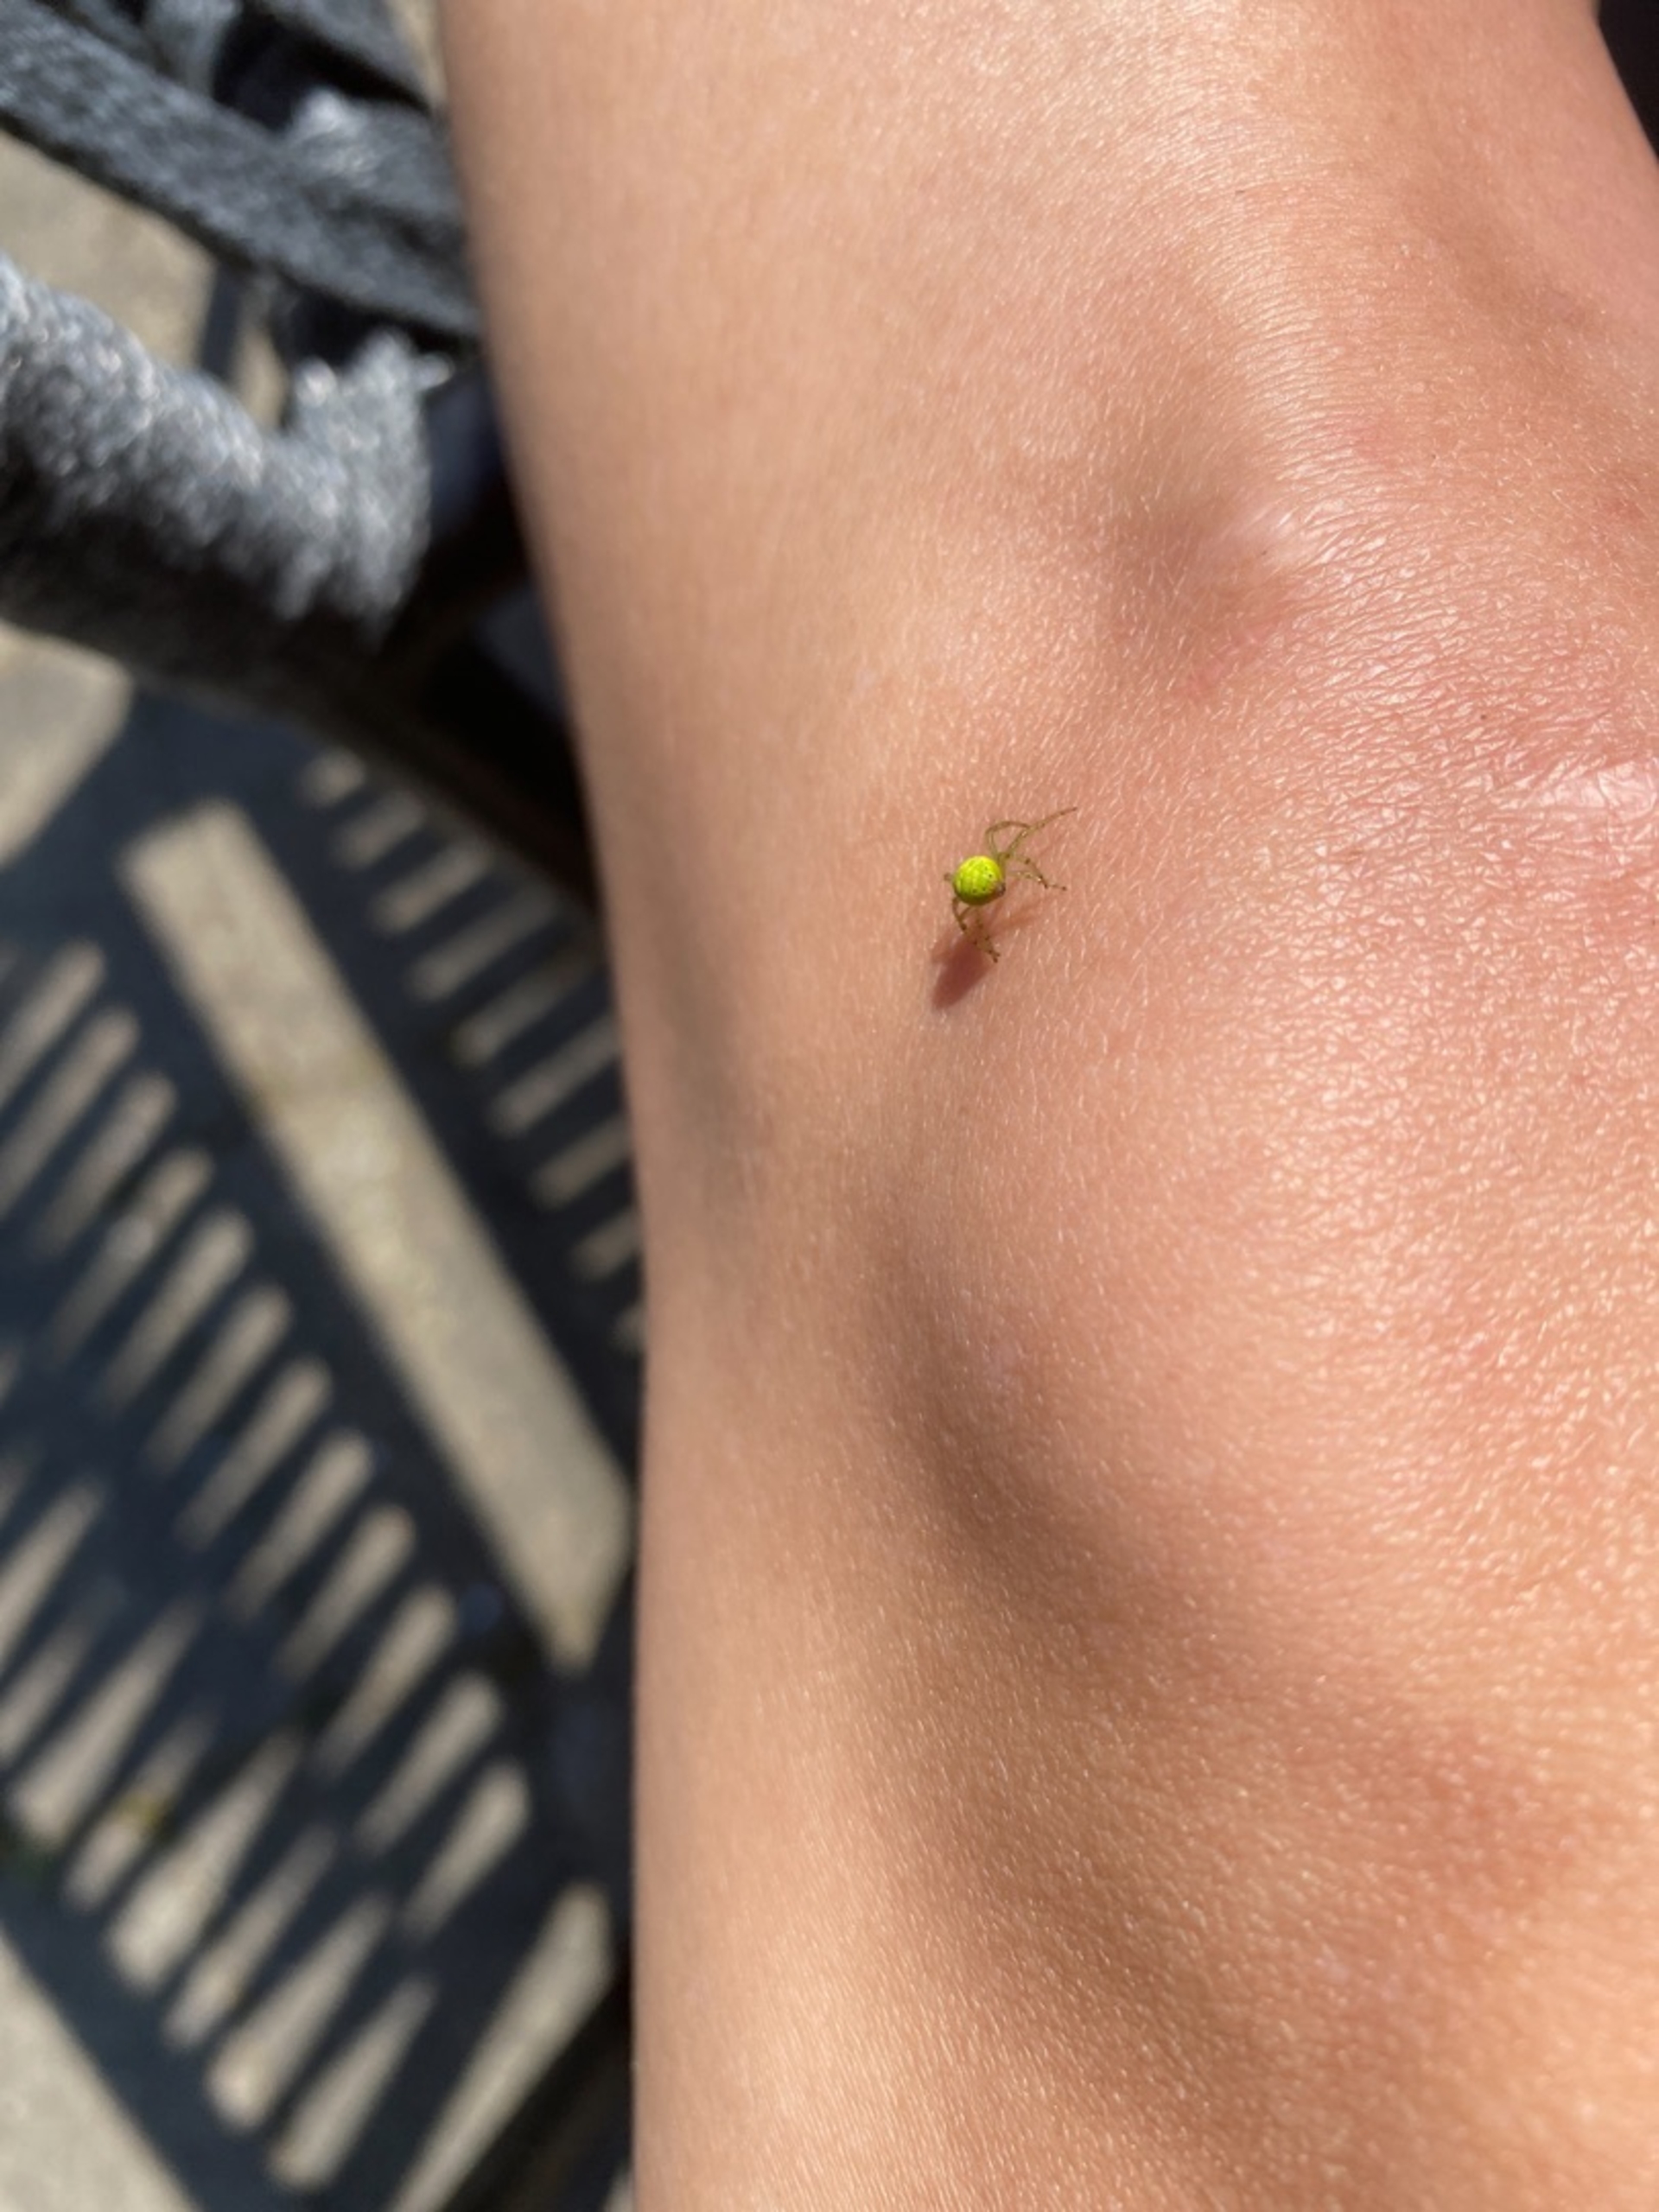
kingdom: Animalia
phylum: Arthropoda
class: Arachnida
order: Araneae
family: Araneidae
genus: Araniella
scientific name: Araniella
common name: Agurkeedderkopslægten
